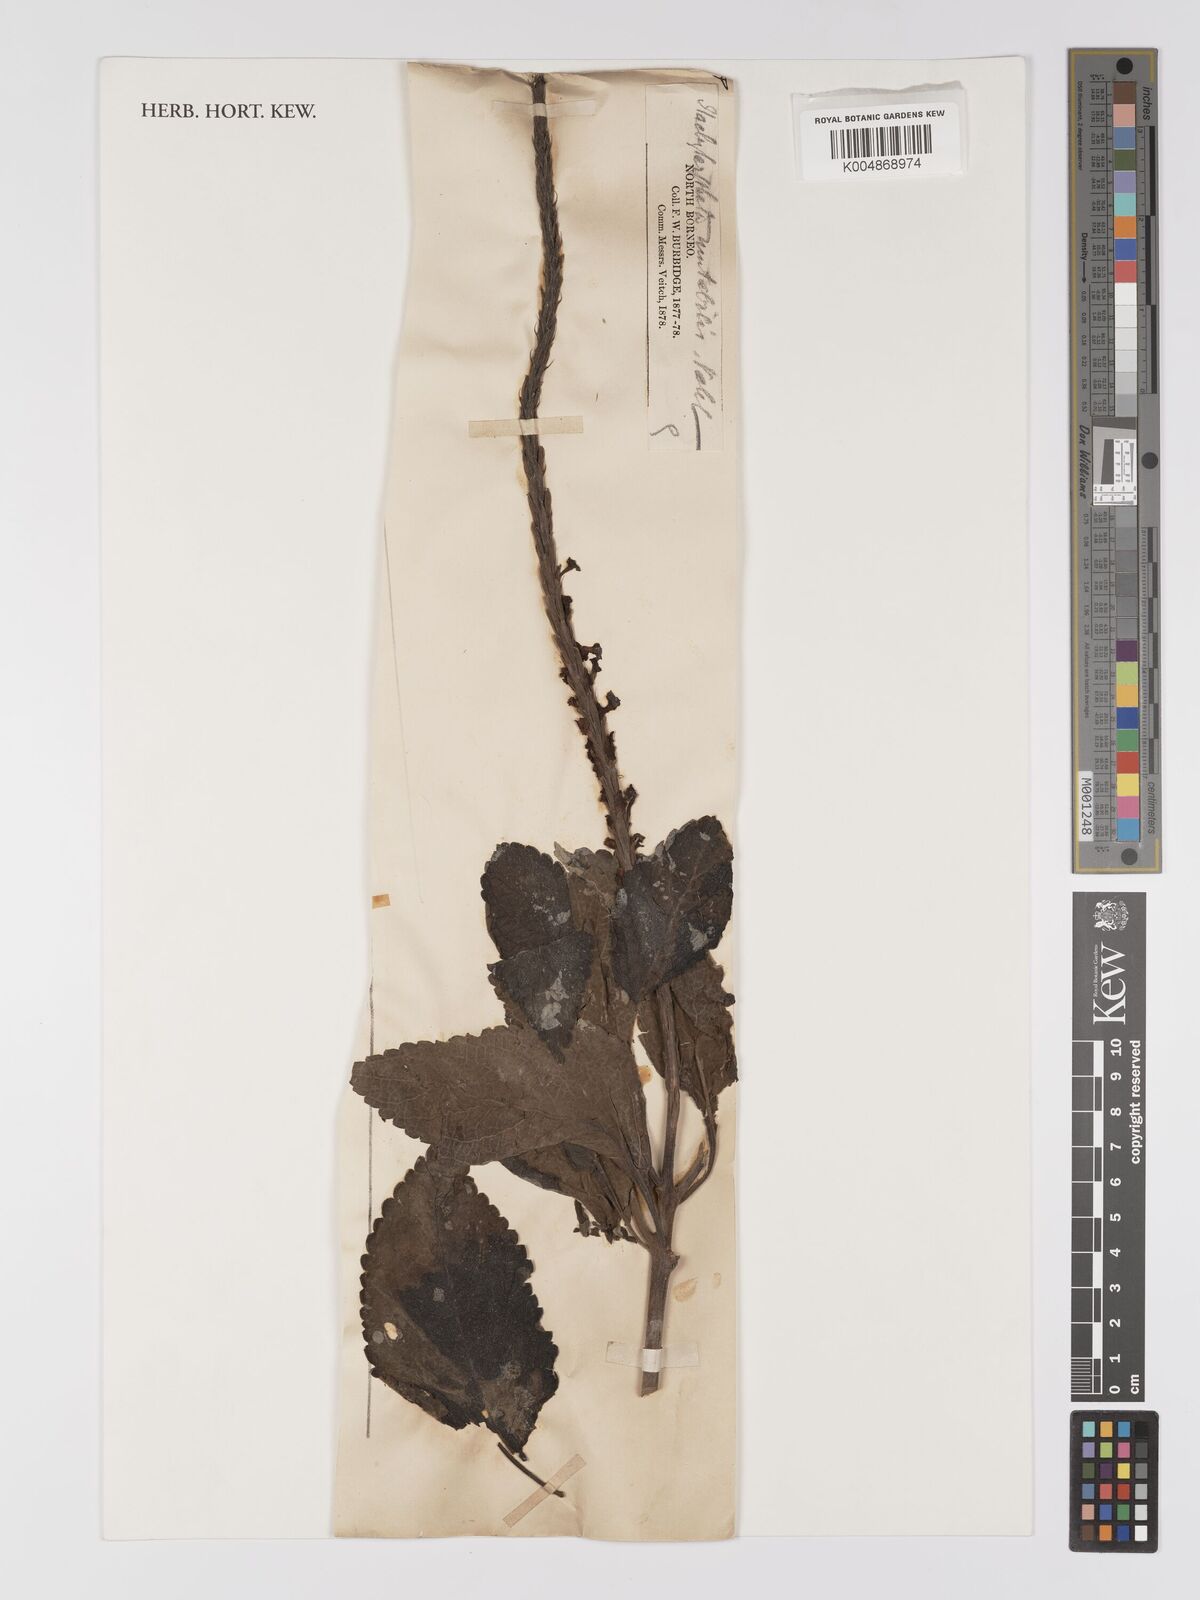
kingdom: Plantae
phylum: Tracheophyta
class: Magnoliopsida
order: Lamiales
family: Verbenaceae
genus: Stachytarpheta
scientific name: Stachytarpheta mutabilis
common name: Changeable velvetberry
